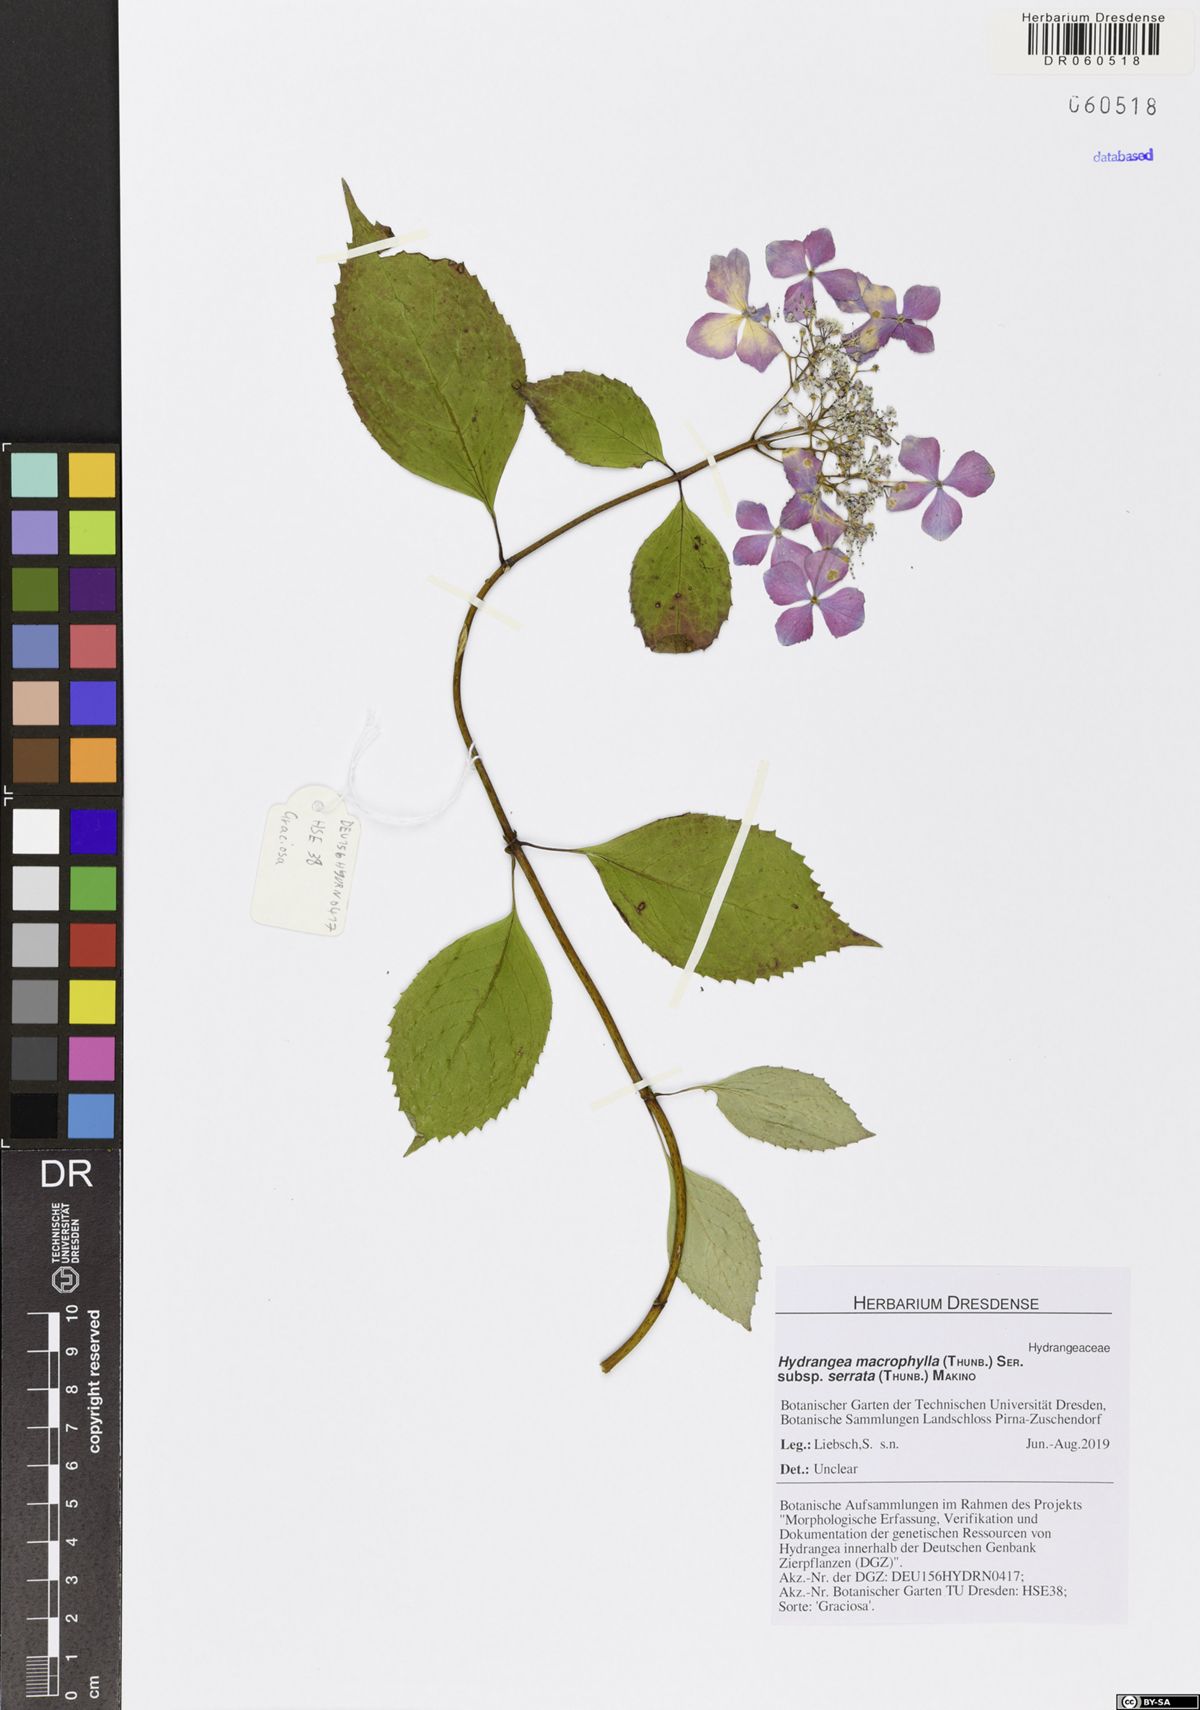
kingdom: Plantae
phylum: Tracheophyta
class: Magnoliopsida
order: Cornales
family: Hydrangeaceae
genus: Hydrangea
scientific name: Hydrangea serrata
